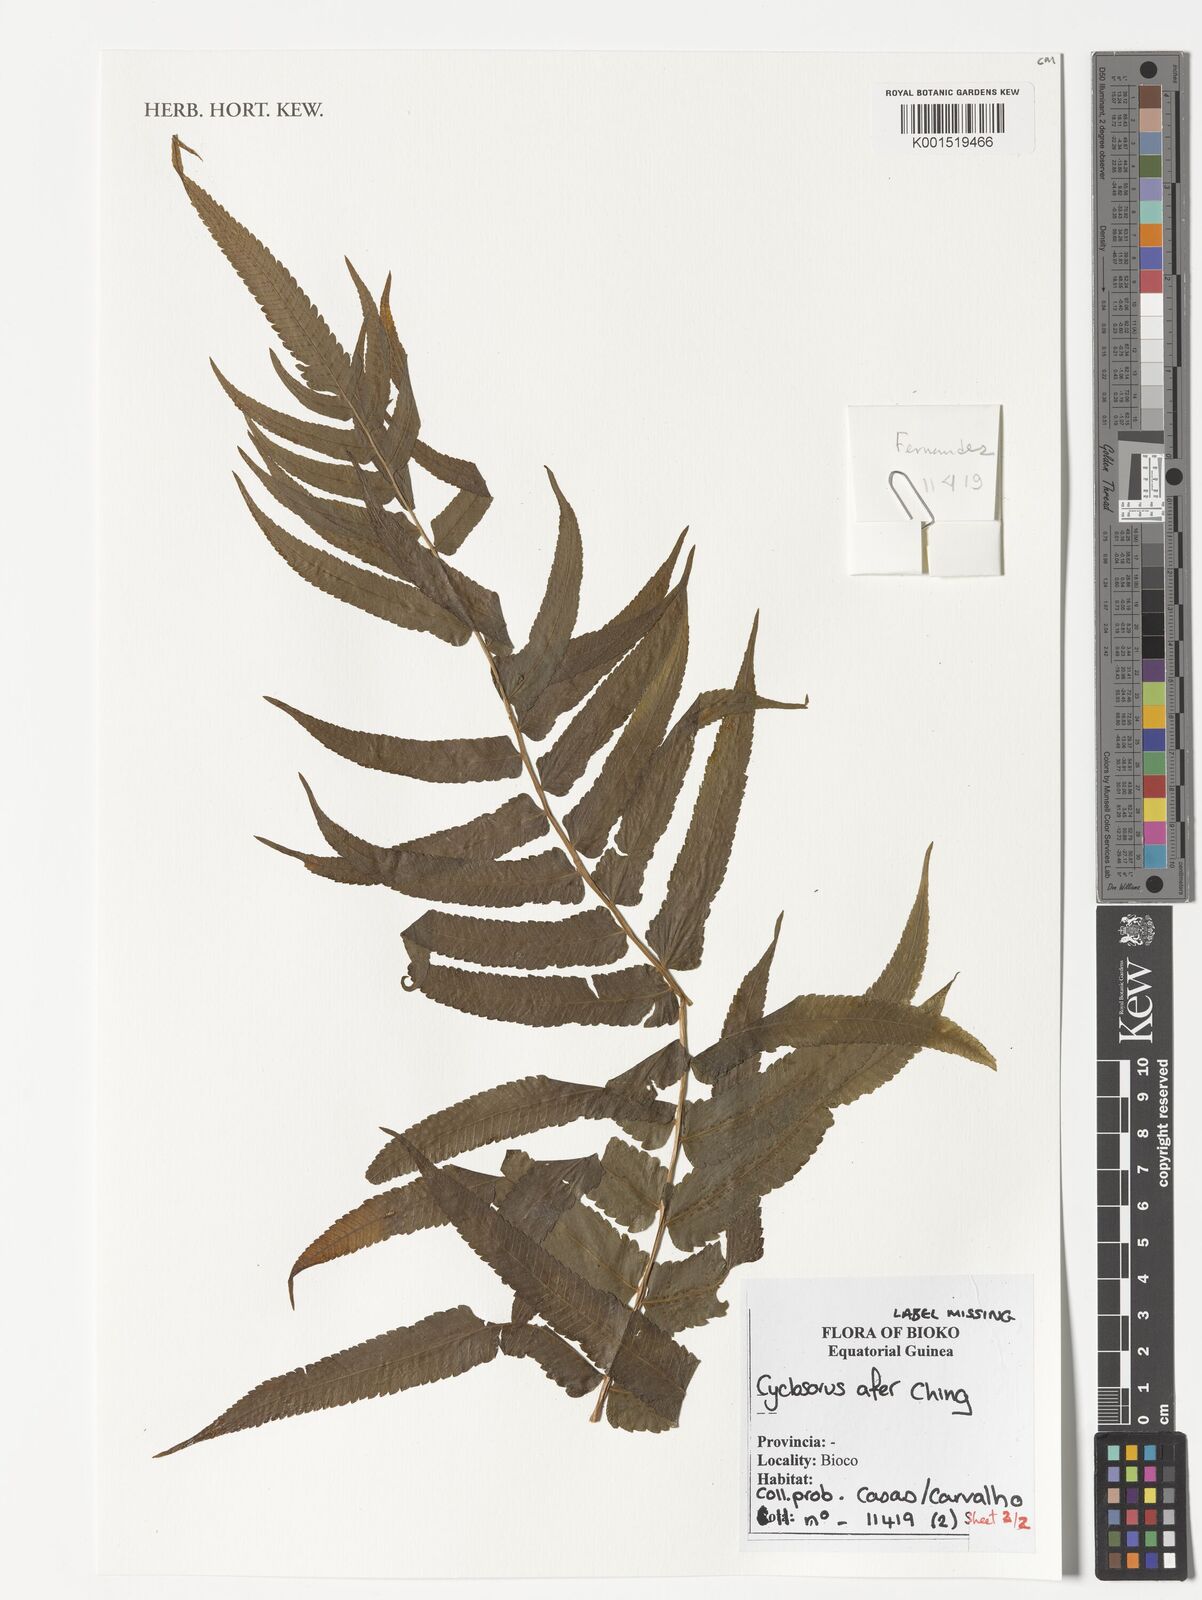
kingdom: Plantae
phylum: Tracheophyta
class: Polypodiopsida
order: Polypodiales
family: Thelypteridaceae
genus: Cyclosorus
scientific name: Cyclosorus
